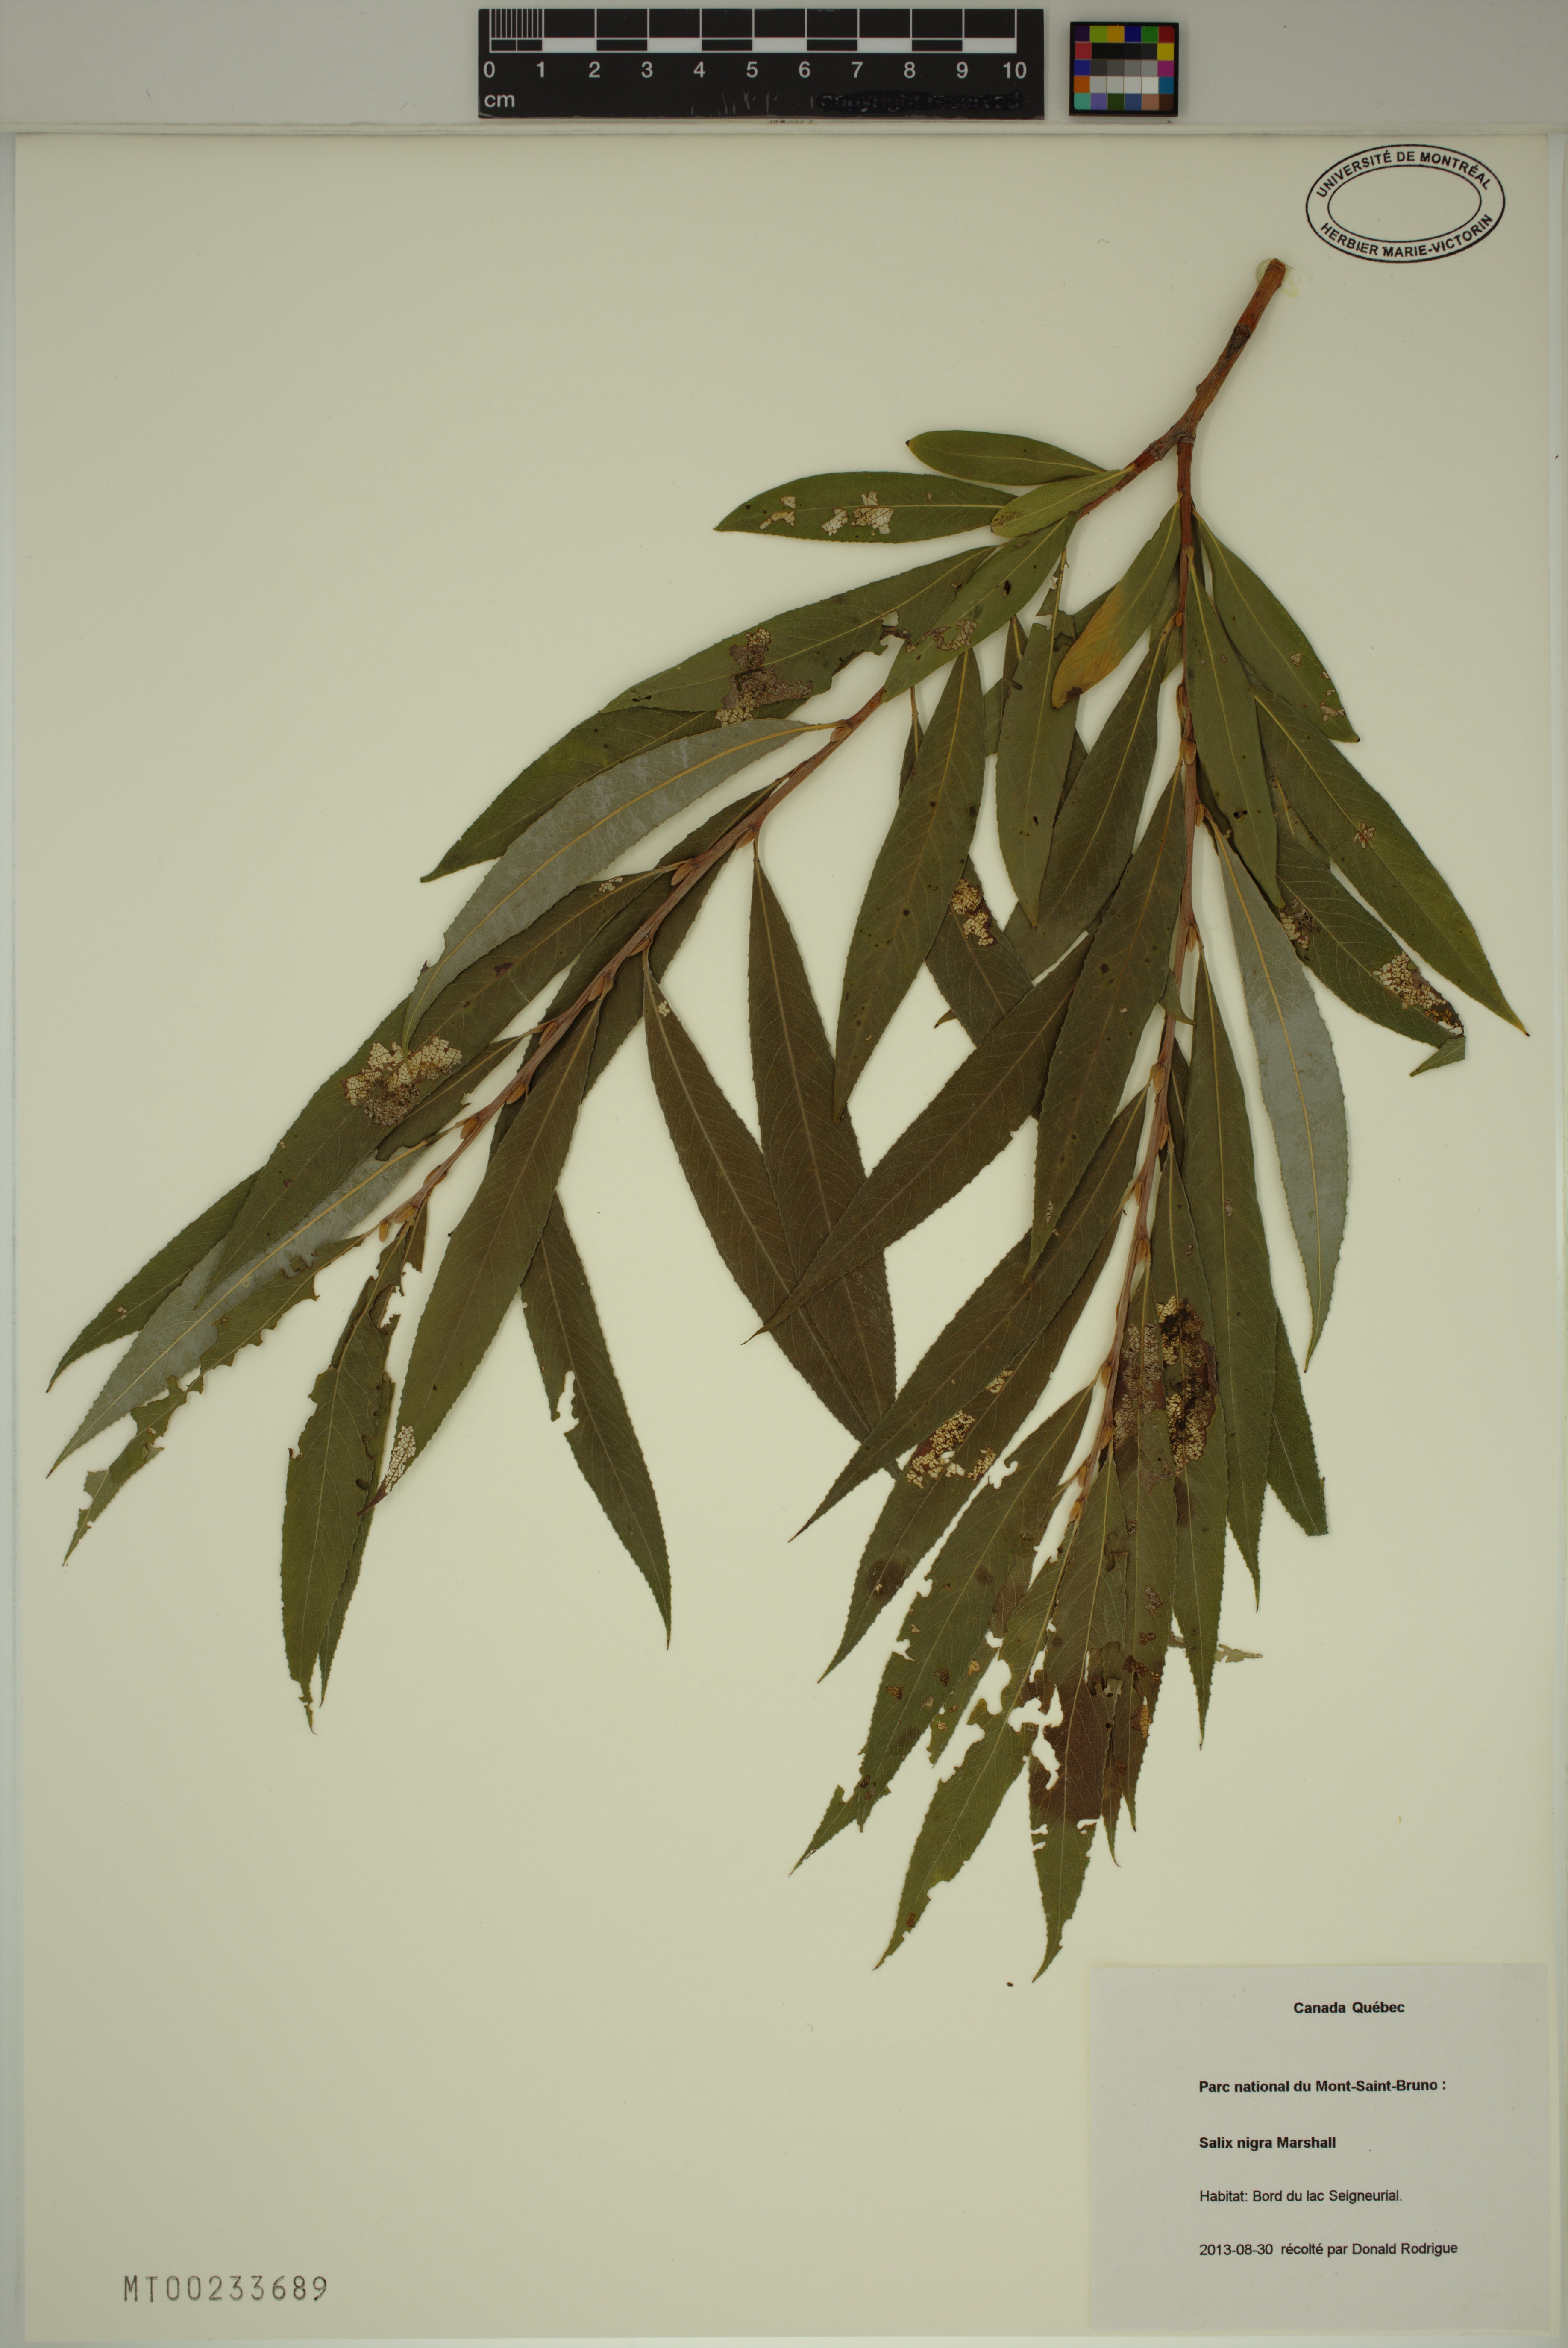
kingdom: Plantae
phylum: Tracheophyta
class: Magnoliopsida
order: Malpighiales
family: Salicaceae
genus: Salix
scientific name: Salix nigra
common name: Black willow
